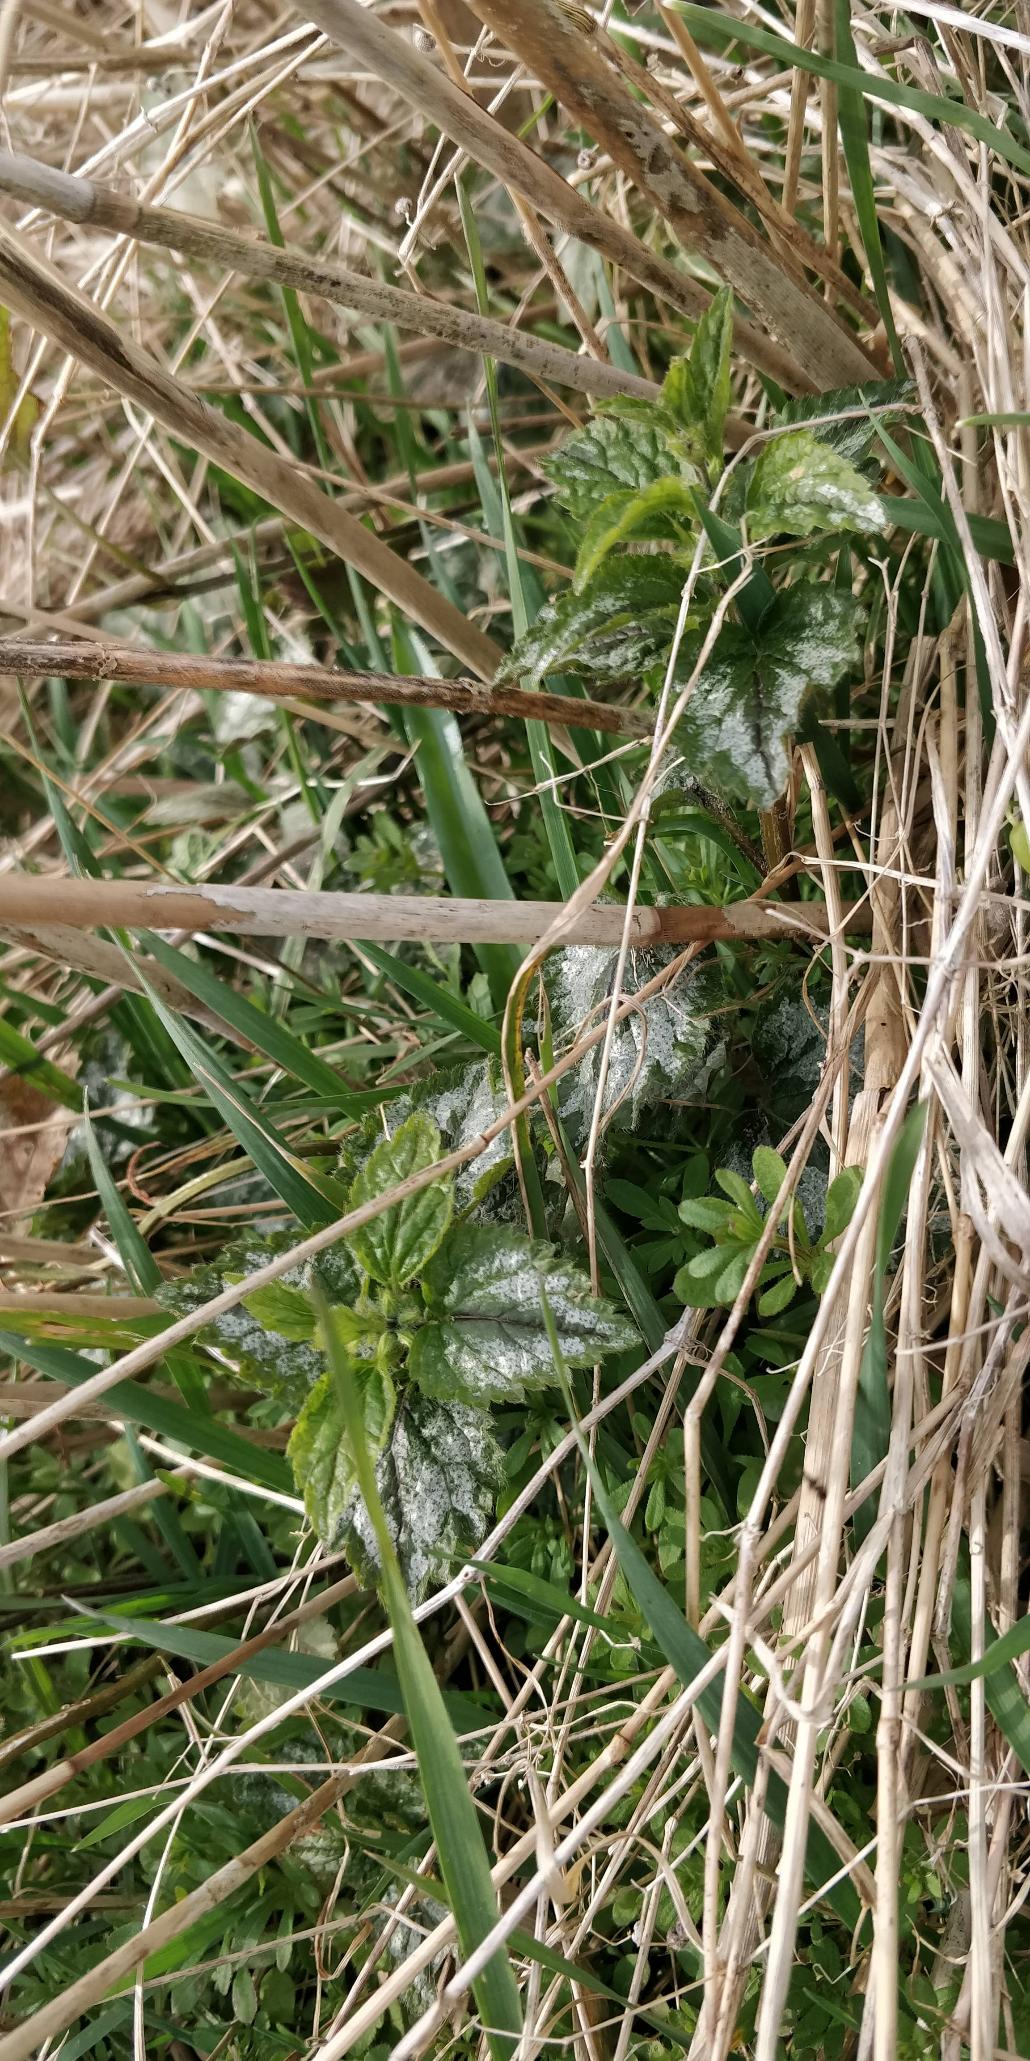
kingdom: Plantae
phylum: Tracheophyta
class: Magnoliopsida
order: Lamiales
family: Lamiaceae
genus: Lamium
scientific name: Lamium galeobdolon
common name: Have-guldnælde
